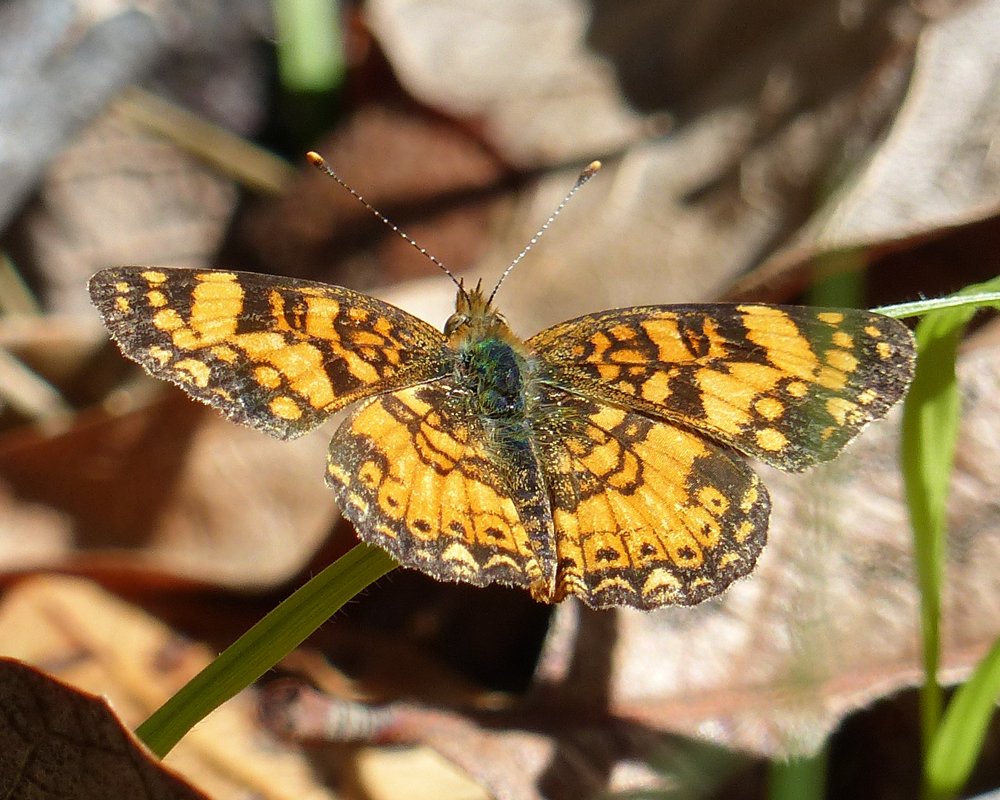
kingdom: Animalia
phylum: Arthropoda
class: Insecta
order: Lepidoptera
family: Nymphalidae
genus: Eresia
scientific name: Eresia aveyrona
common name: Mylitta Crescent
